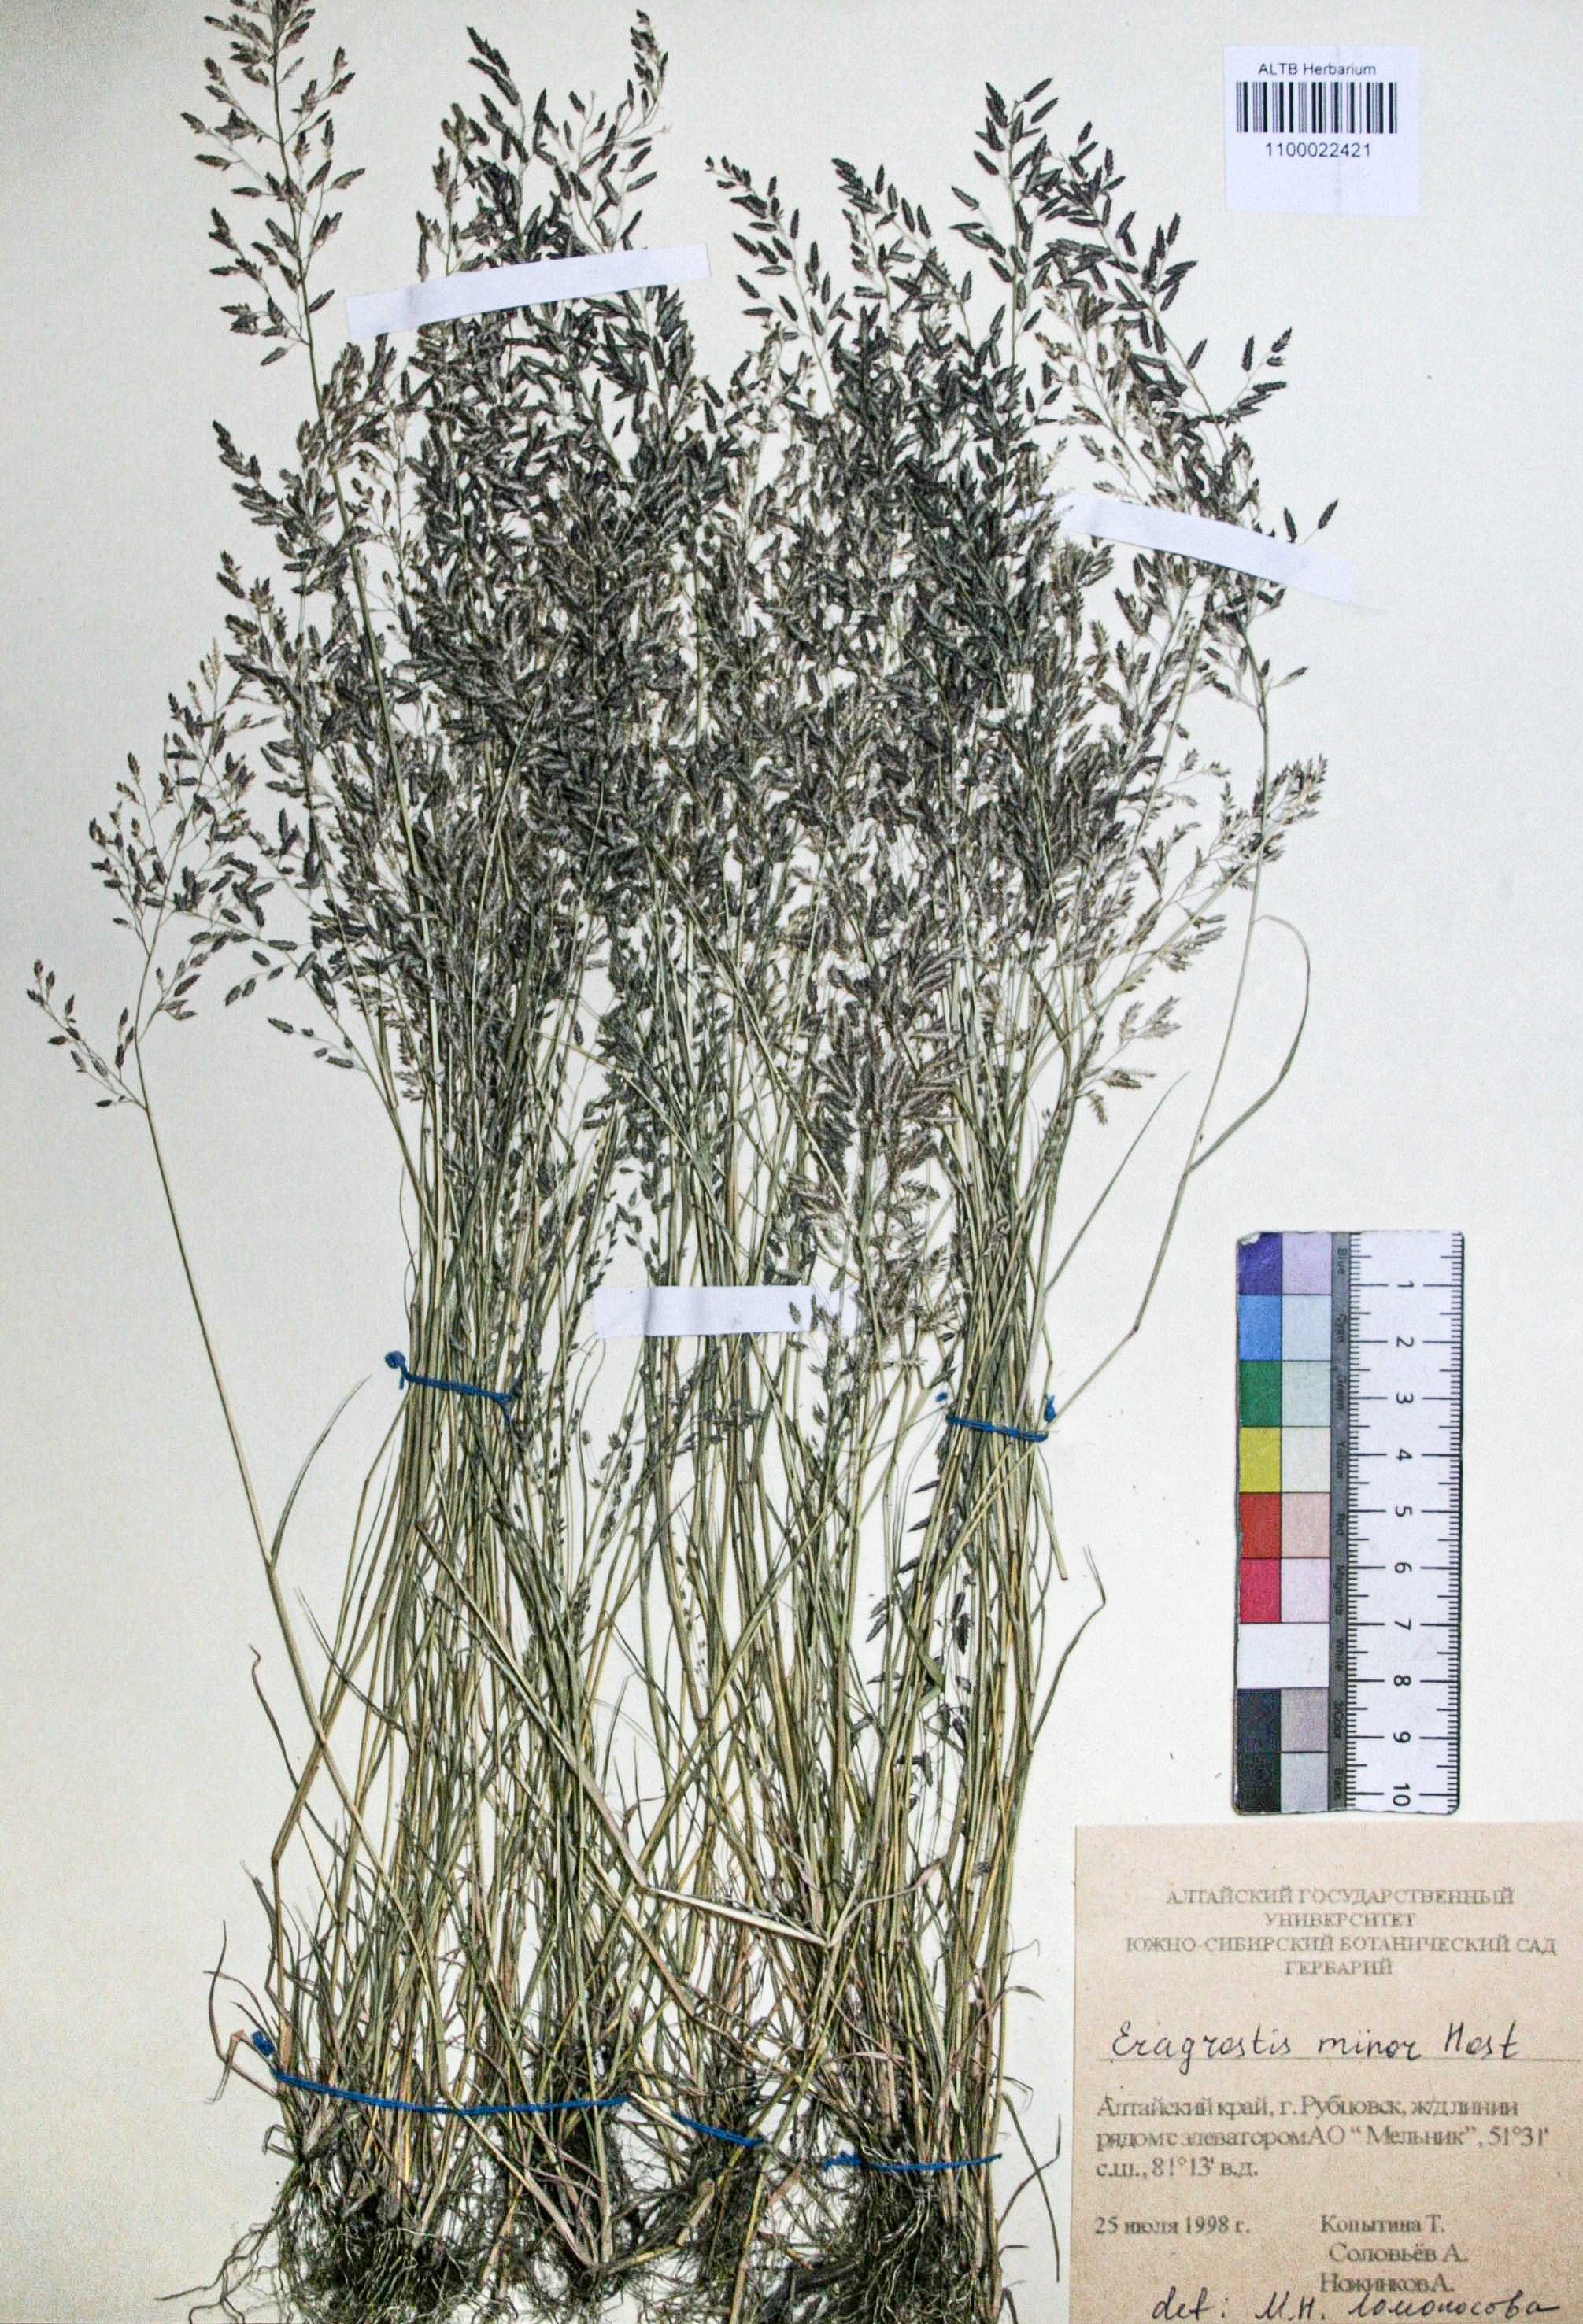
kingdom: Plantae
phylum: Tracheophyta
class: Liliopsida
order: Poales
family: Poaceae
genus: Eragrostis
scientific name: Eragrostis minor
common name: Small love-grass
